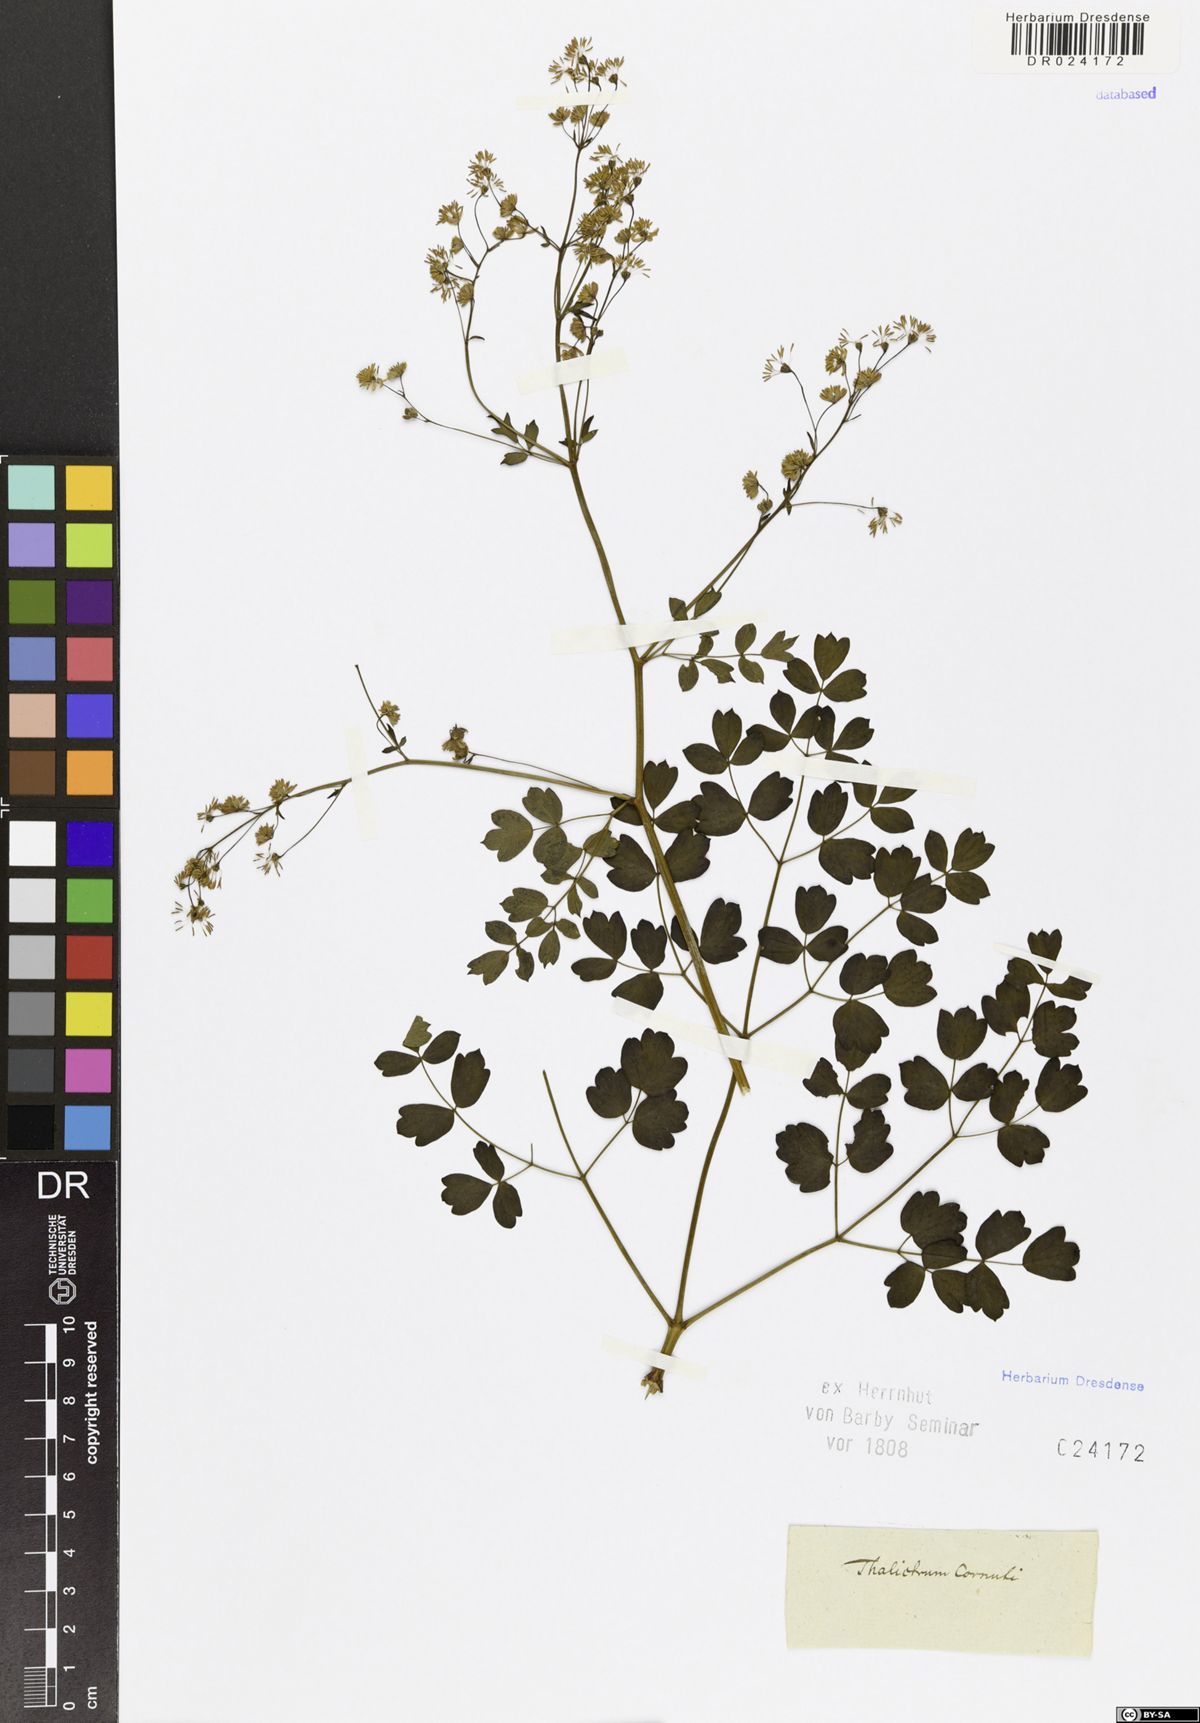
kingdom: Plantae
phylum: Tracheophyta
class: Magnoliopsida
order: Ranunculales
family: Ranunculaceae
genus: Thalictrum
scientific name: Thalictrum aquilegiifolium
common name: French meadow-rue
